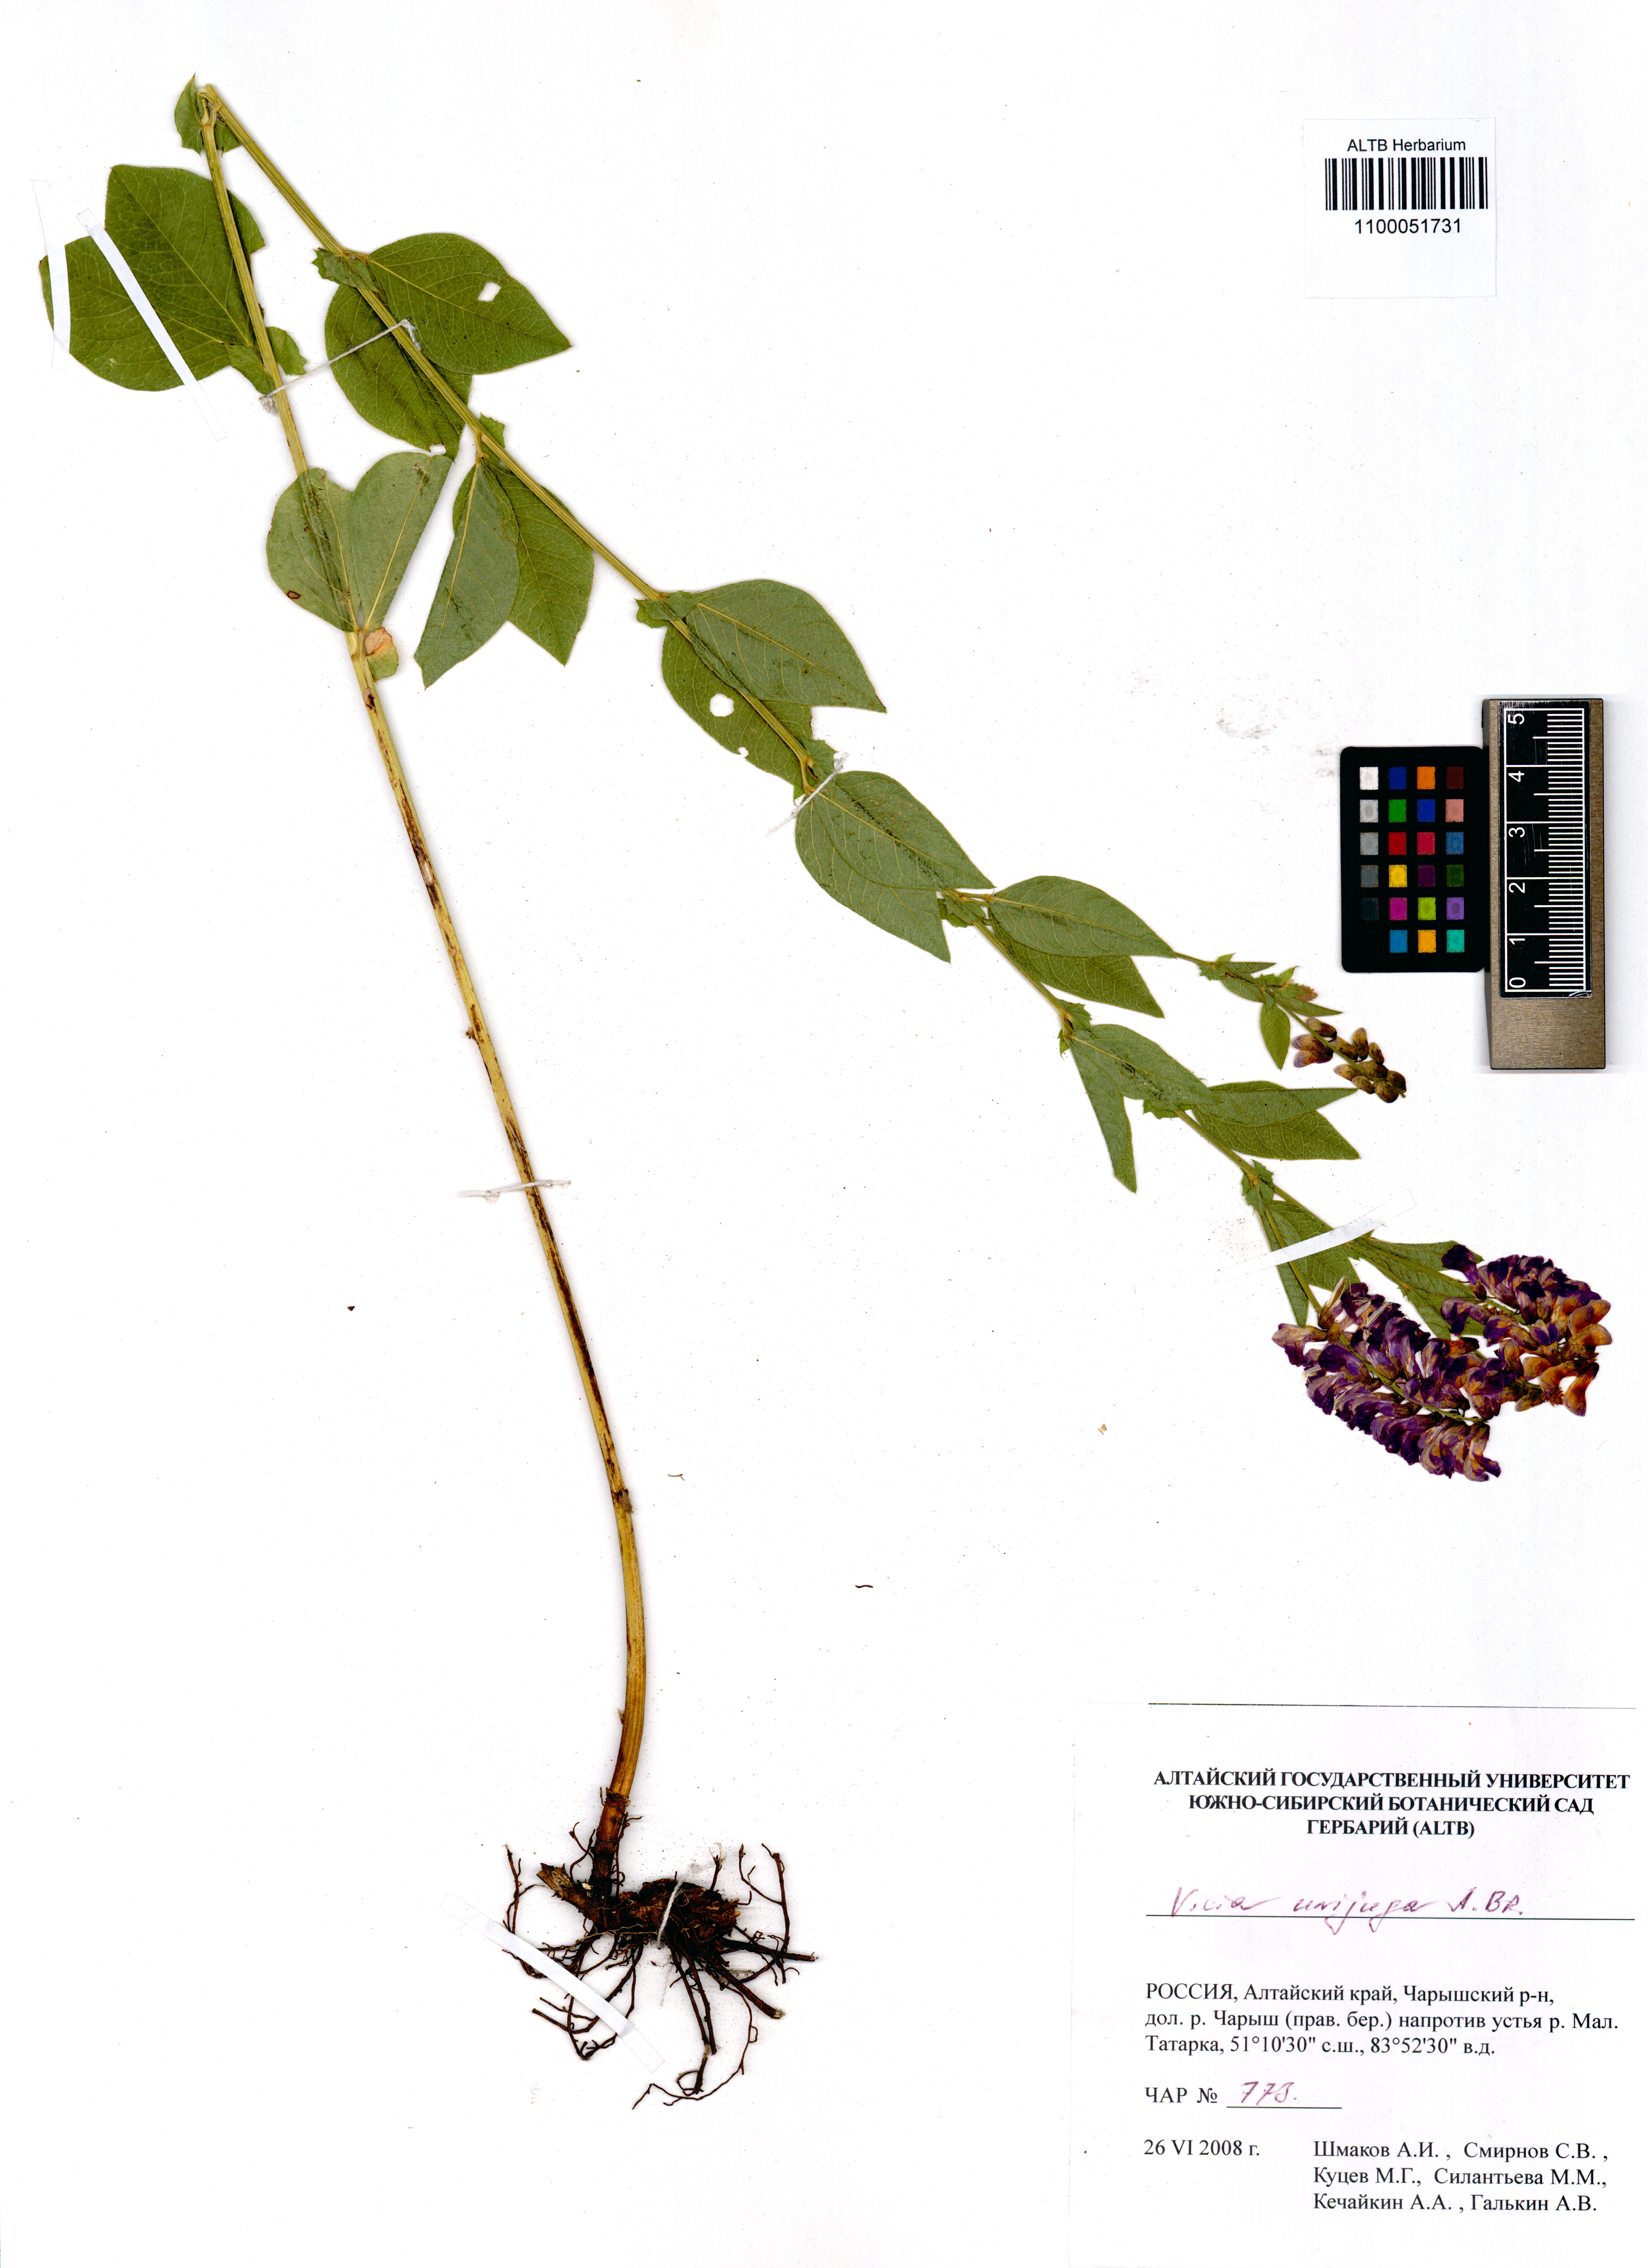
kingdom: Plantae
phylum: Tracheophyta
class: Magnoliopsida
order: Fabales
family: Fabaceae
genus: Vicia
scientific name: Vicia unijuga
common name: Two-leaf vetch
